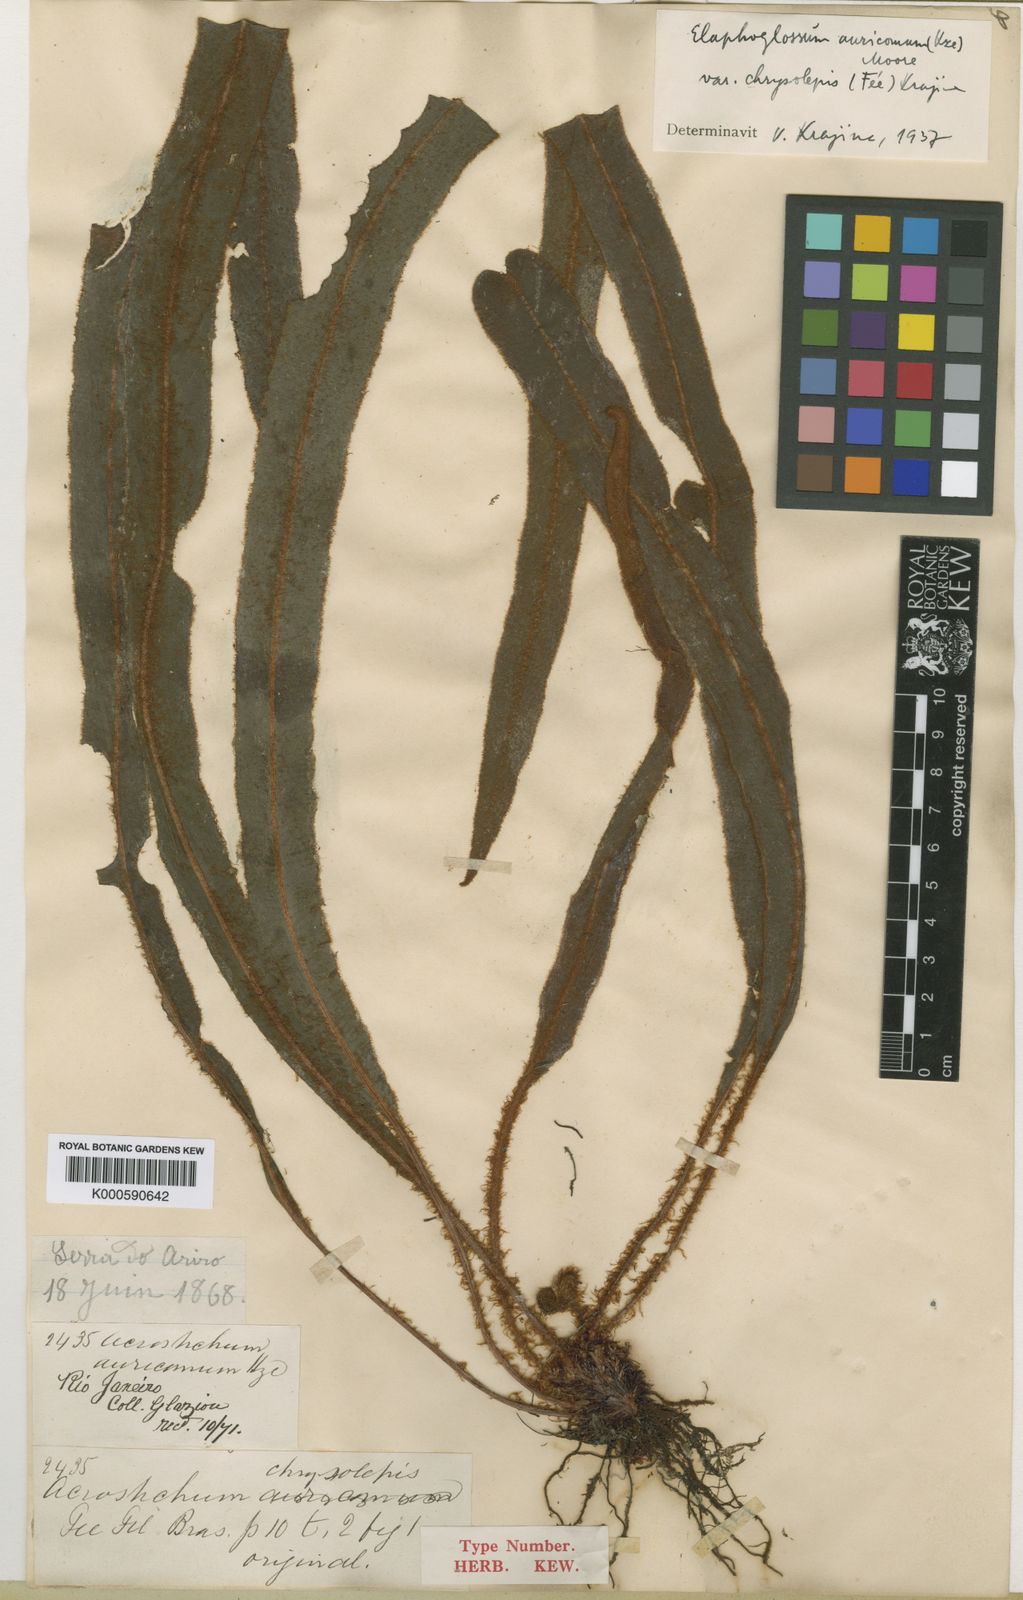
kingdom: Plantae
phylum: Tracheophyta
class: Polypodiopsida
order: Polypodiales
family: Dryopteridaceae
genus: Elaphoglossum
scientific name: Elaphoglossum auricomum
